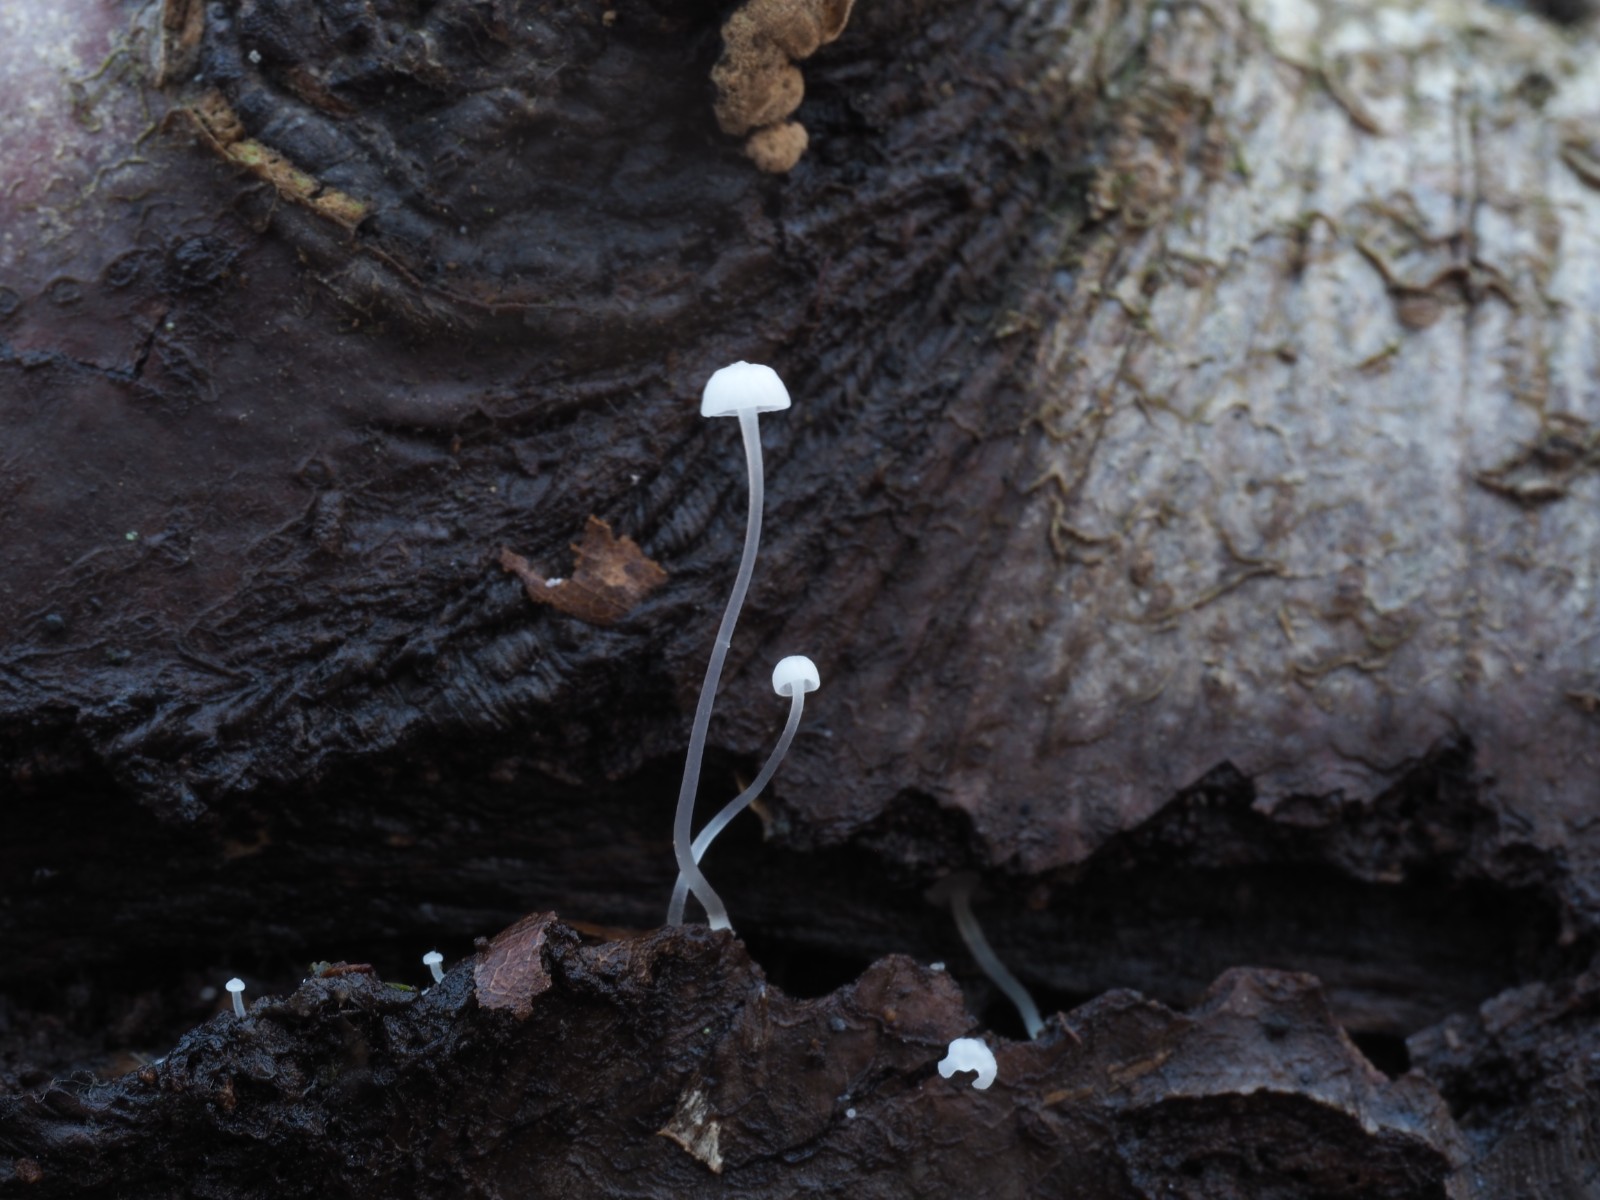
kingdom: Fungi
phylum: Basidiomycota
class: Agaricomycetes
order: Agaricales
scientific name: Agaricales
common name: champignonordenen
